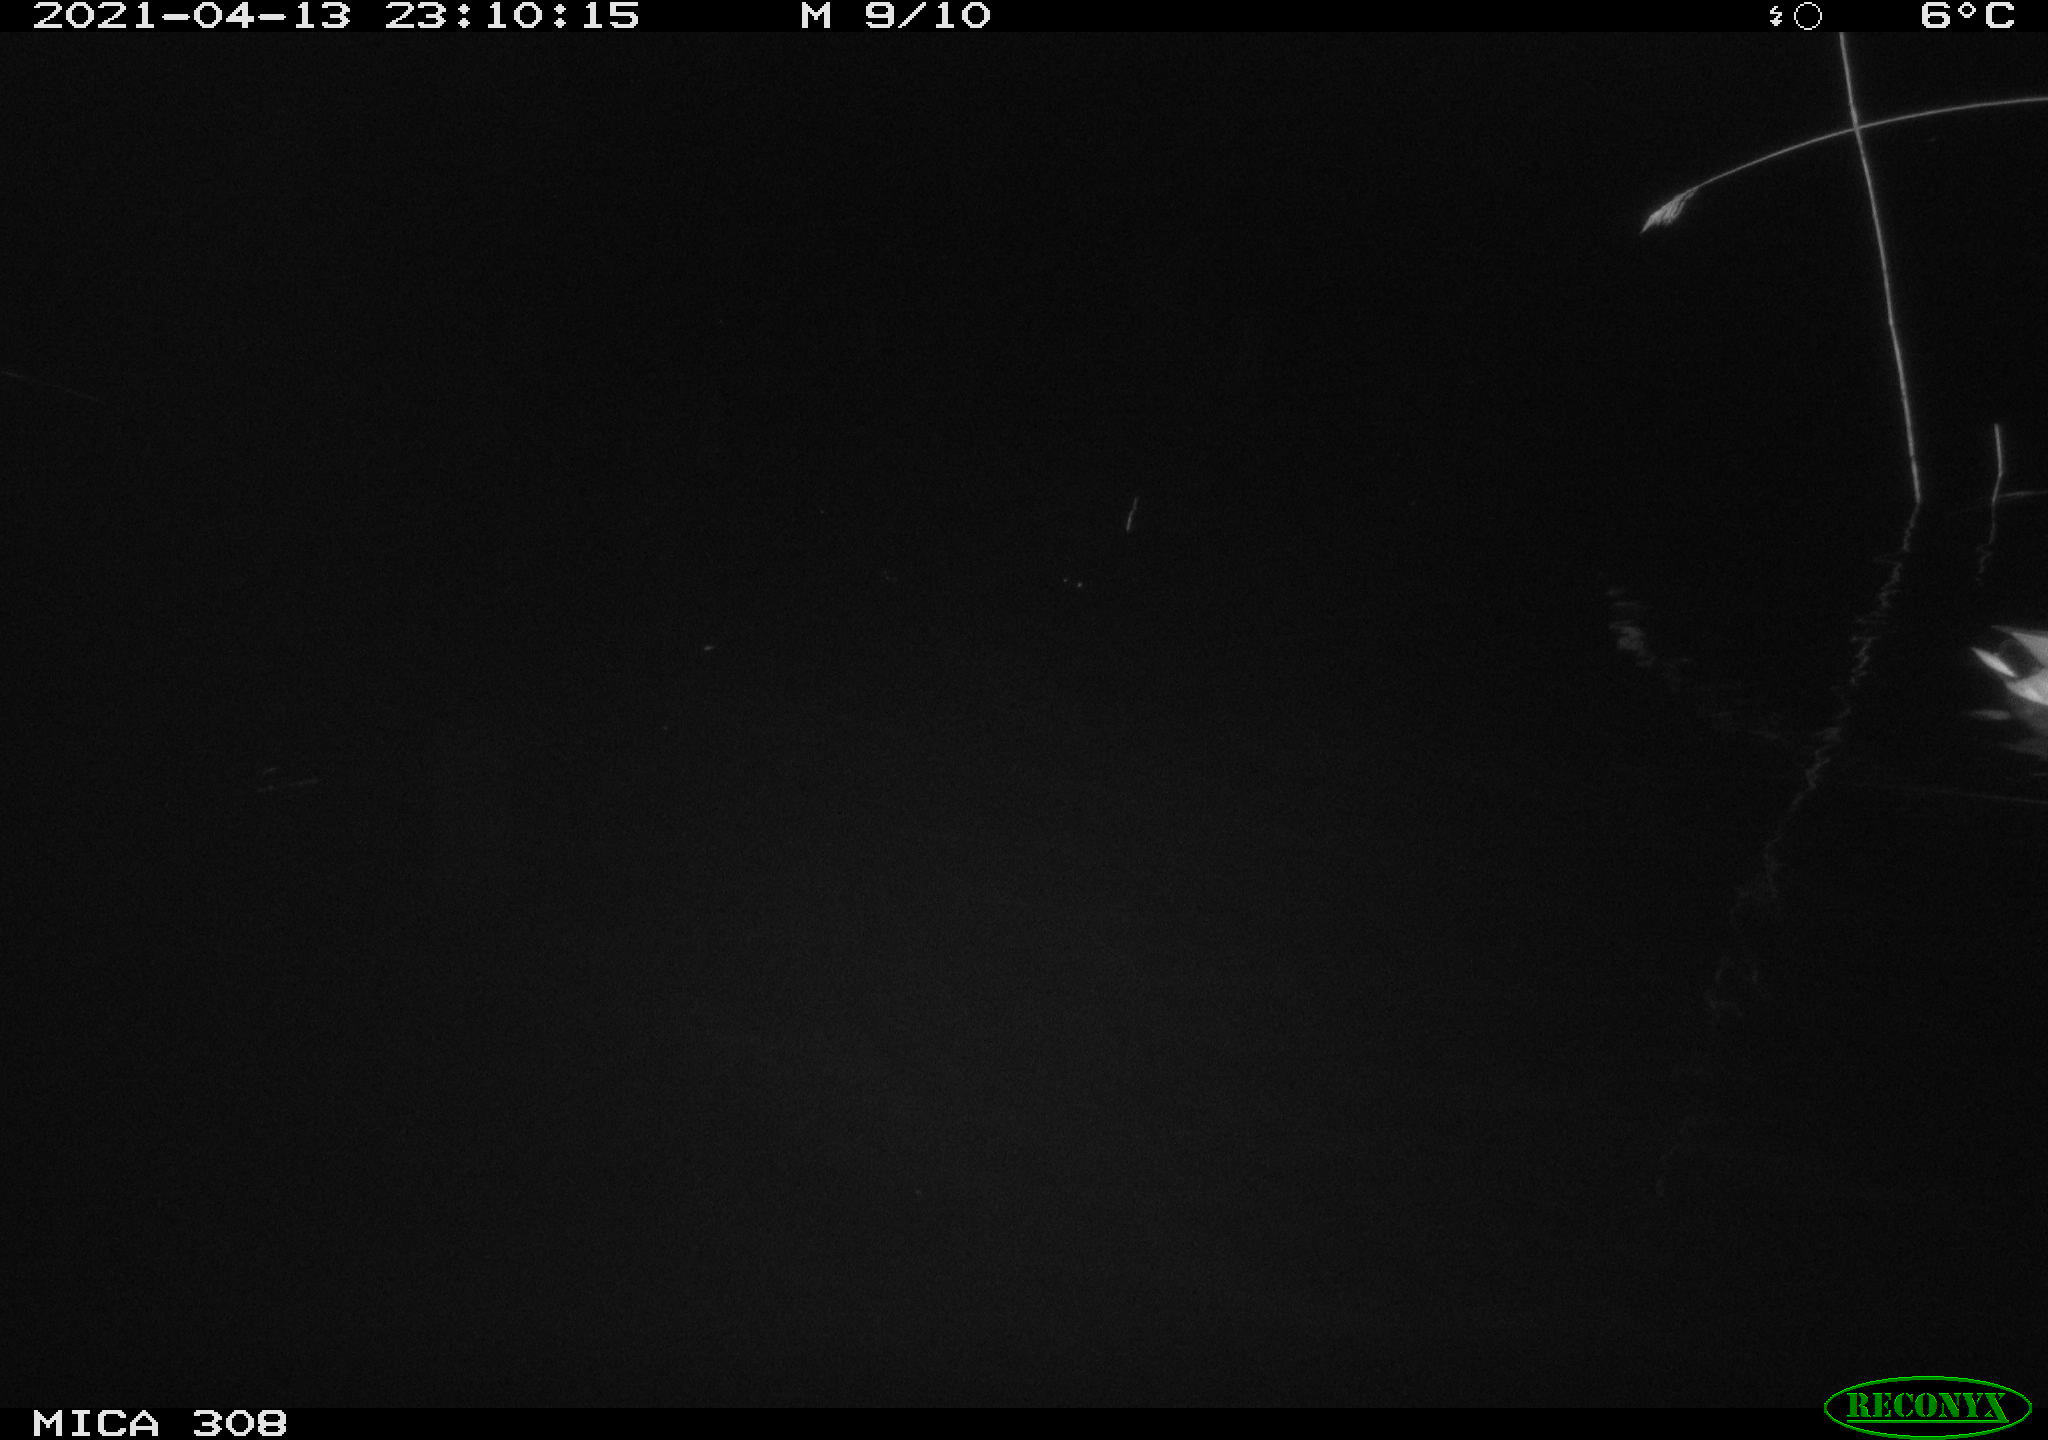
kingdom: Animalia
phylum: Chordata
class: Aves
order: Anseriformes
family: Anatidae
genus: Anas
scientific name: Anas platyrhynchos
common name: Mallard
